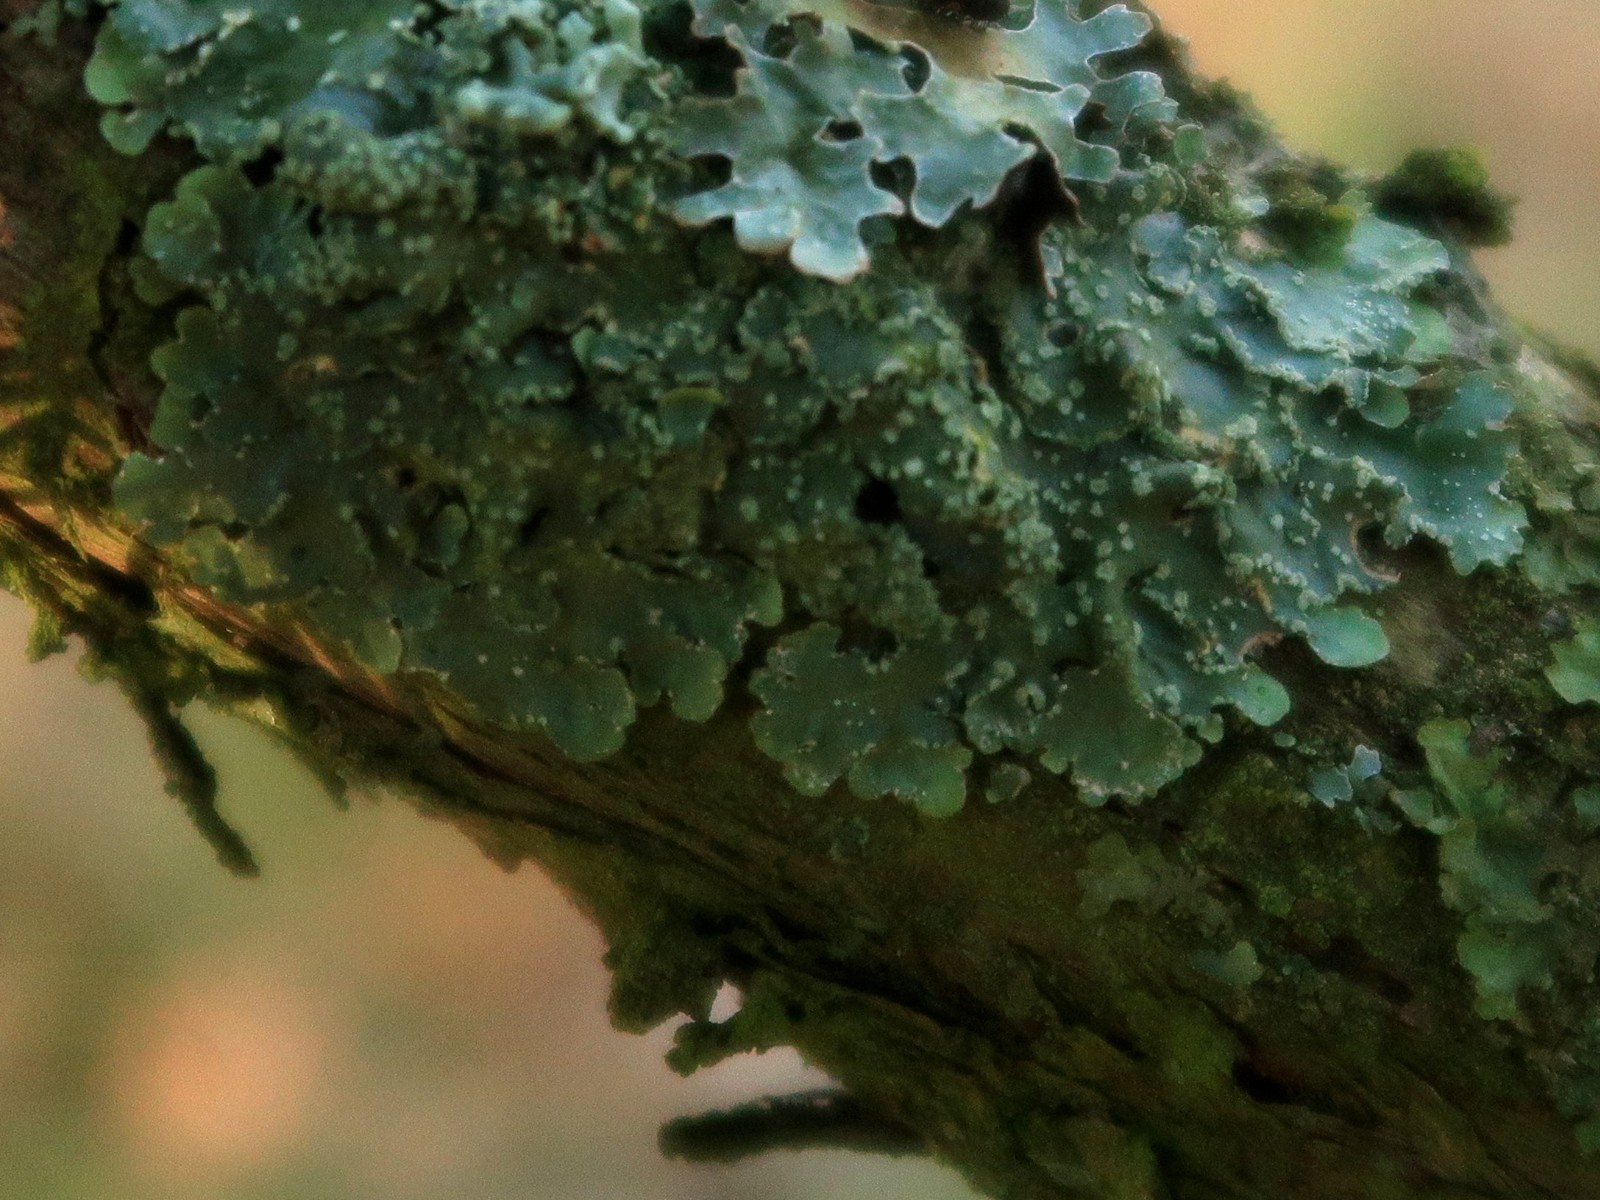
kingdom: Fungi
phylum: Ascomycota
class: Lecanoromycetes
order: Lecanorales
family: Parmeliaceae
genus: Punctelia
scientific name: Punctelia subrudecta
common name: punkt-skållav
